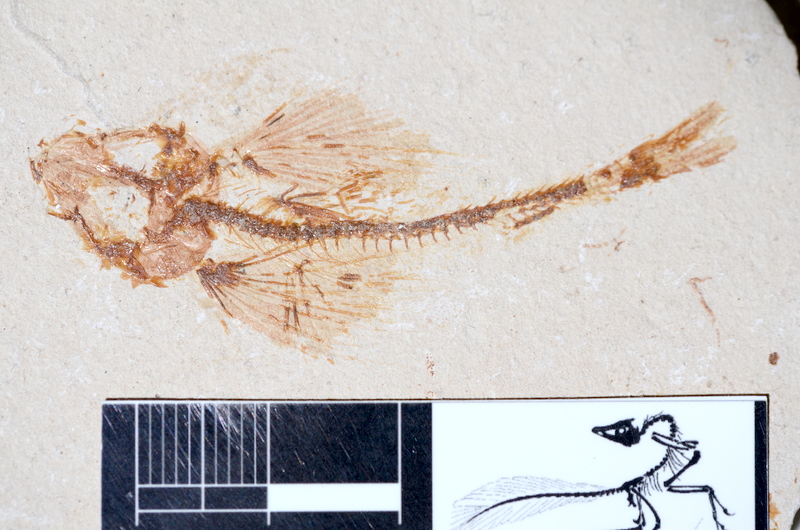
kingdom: Animalia
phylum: Chordata
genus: Exocoetoides
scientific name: Exocoetoides minor
